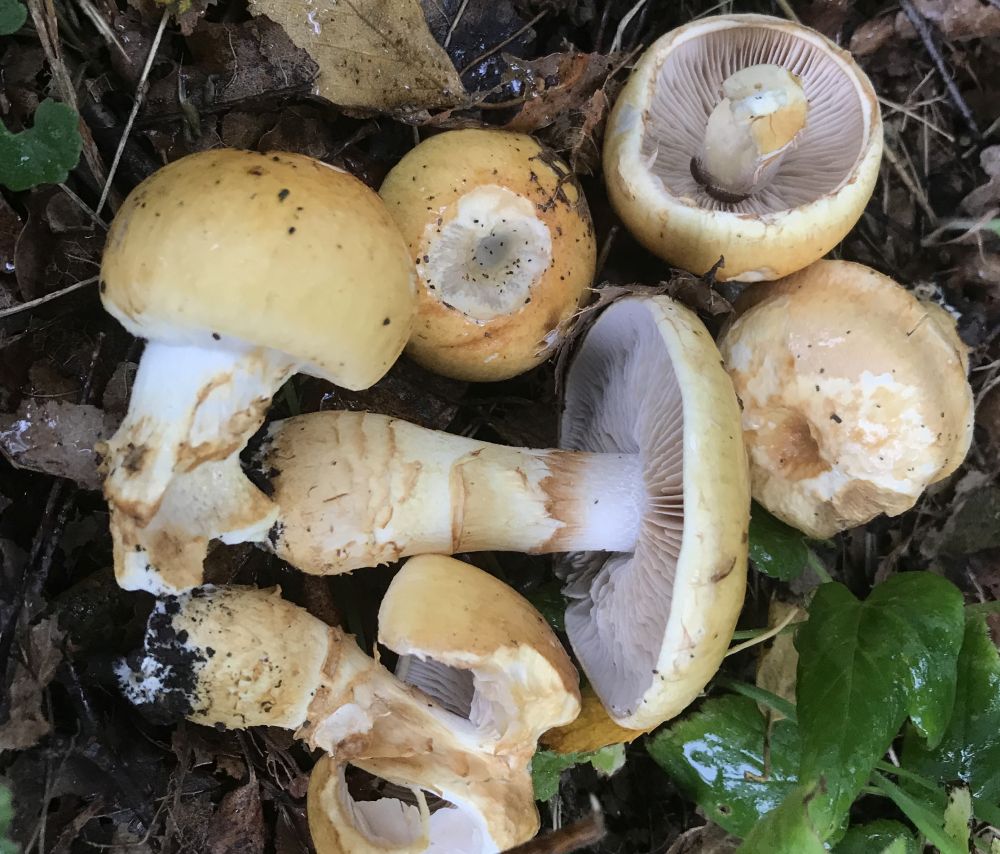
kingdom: Fungi
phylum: Basidiomycota
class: Agaricomycetes
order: Agaricales
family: Cortinariaceae
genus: Phlegmacium
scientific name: Phlegmacium triumphans
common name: gulbæltet slørhat
